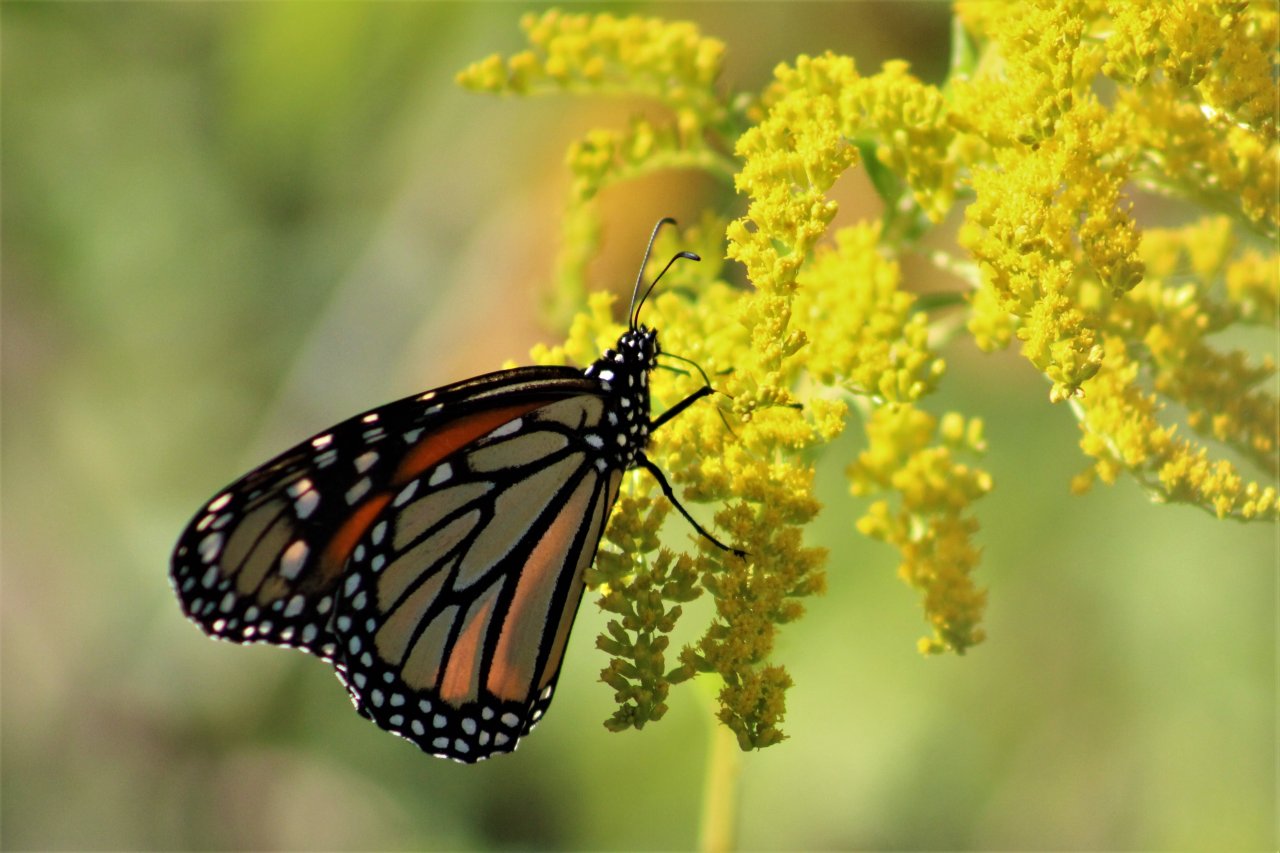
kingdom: Animalia
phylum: Arthropoda
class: Insecta
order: Lepidoptera
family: Nymphalidae
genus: Danaus
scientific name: Danaus plexippus
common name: Monarch
